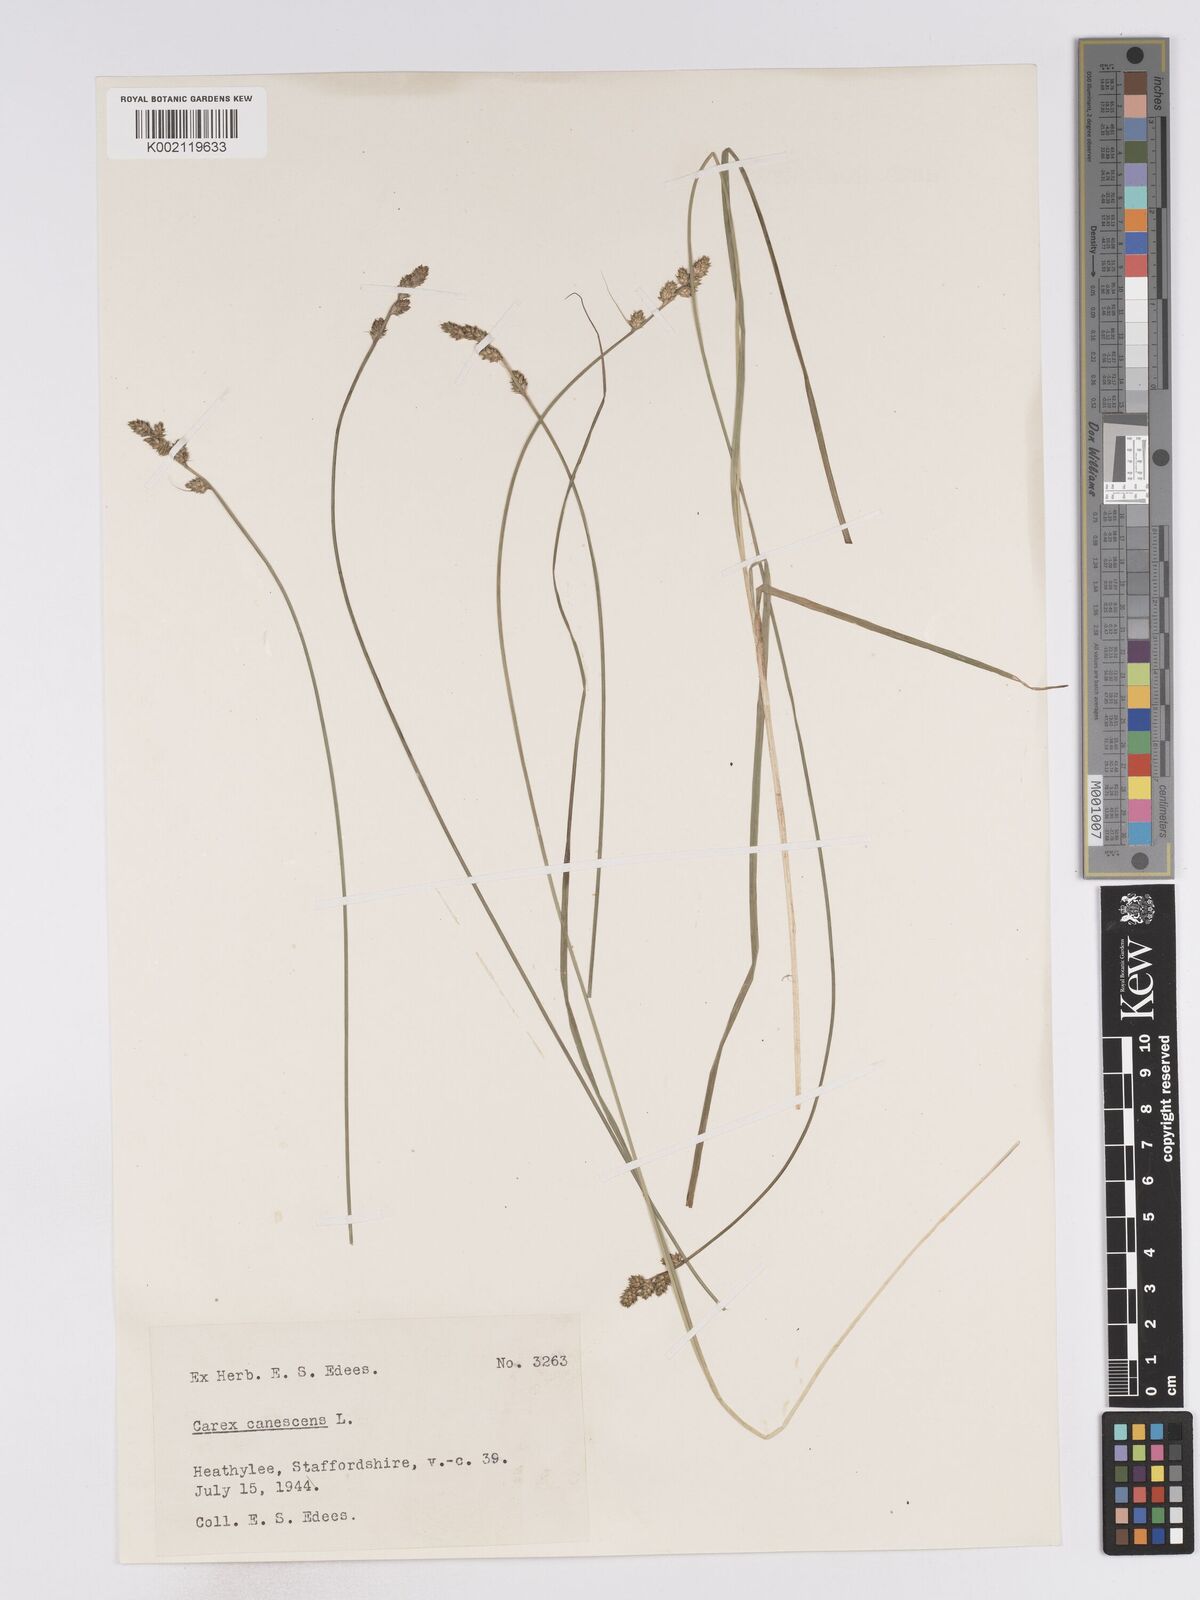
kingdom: Plantae
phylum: Tracheophyta
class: Liliopsida
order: Poales
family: Cyperaceae
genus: Carex
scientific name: Carex curta
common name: White sedge
